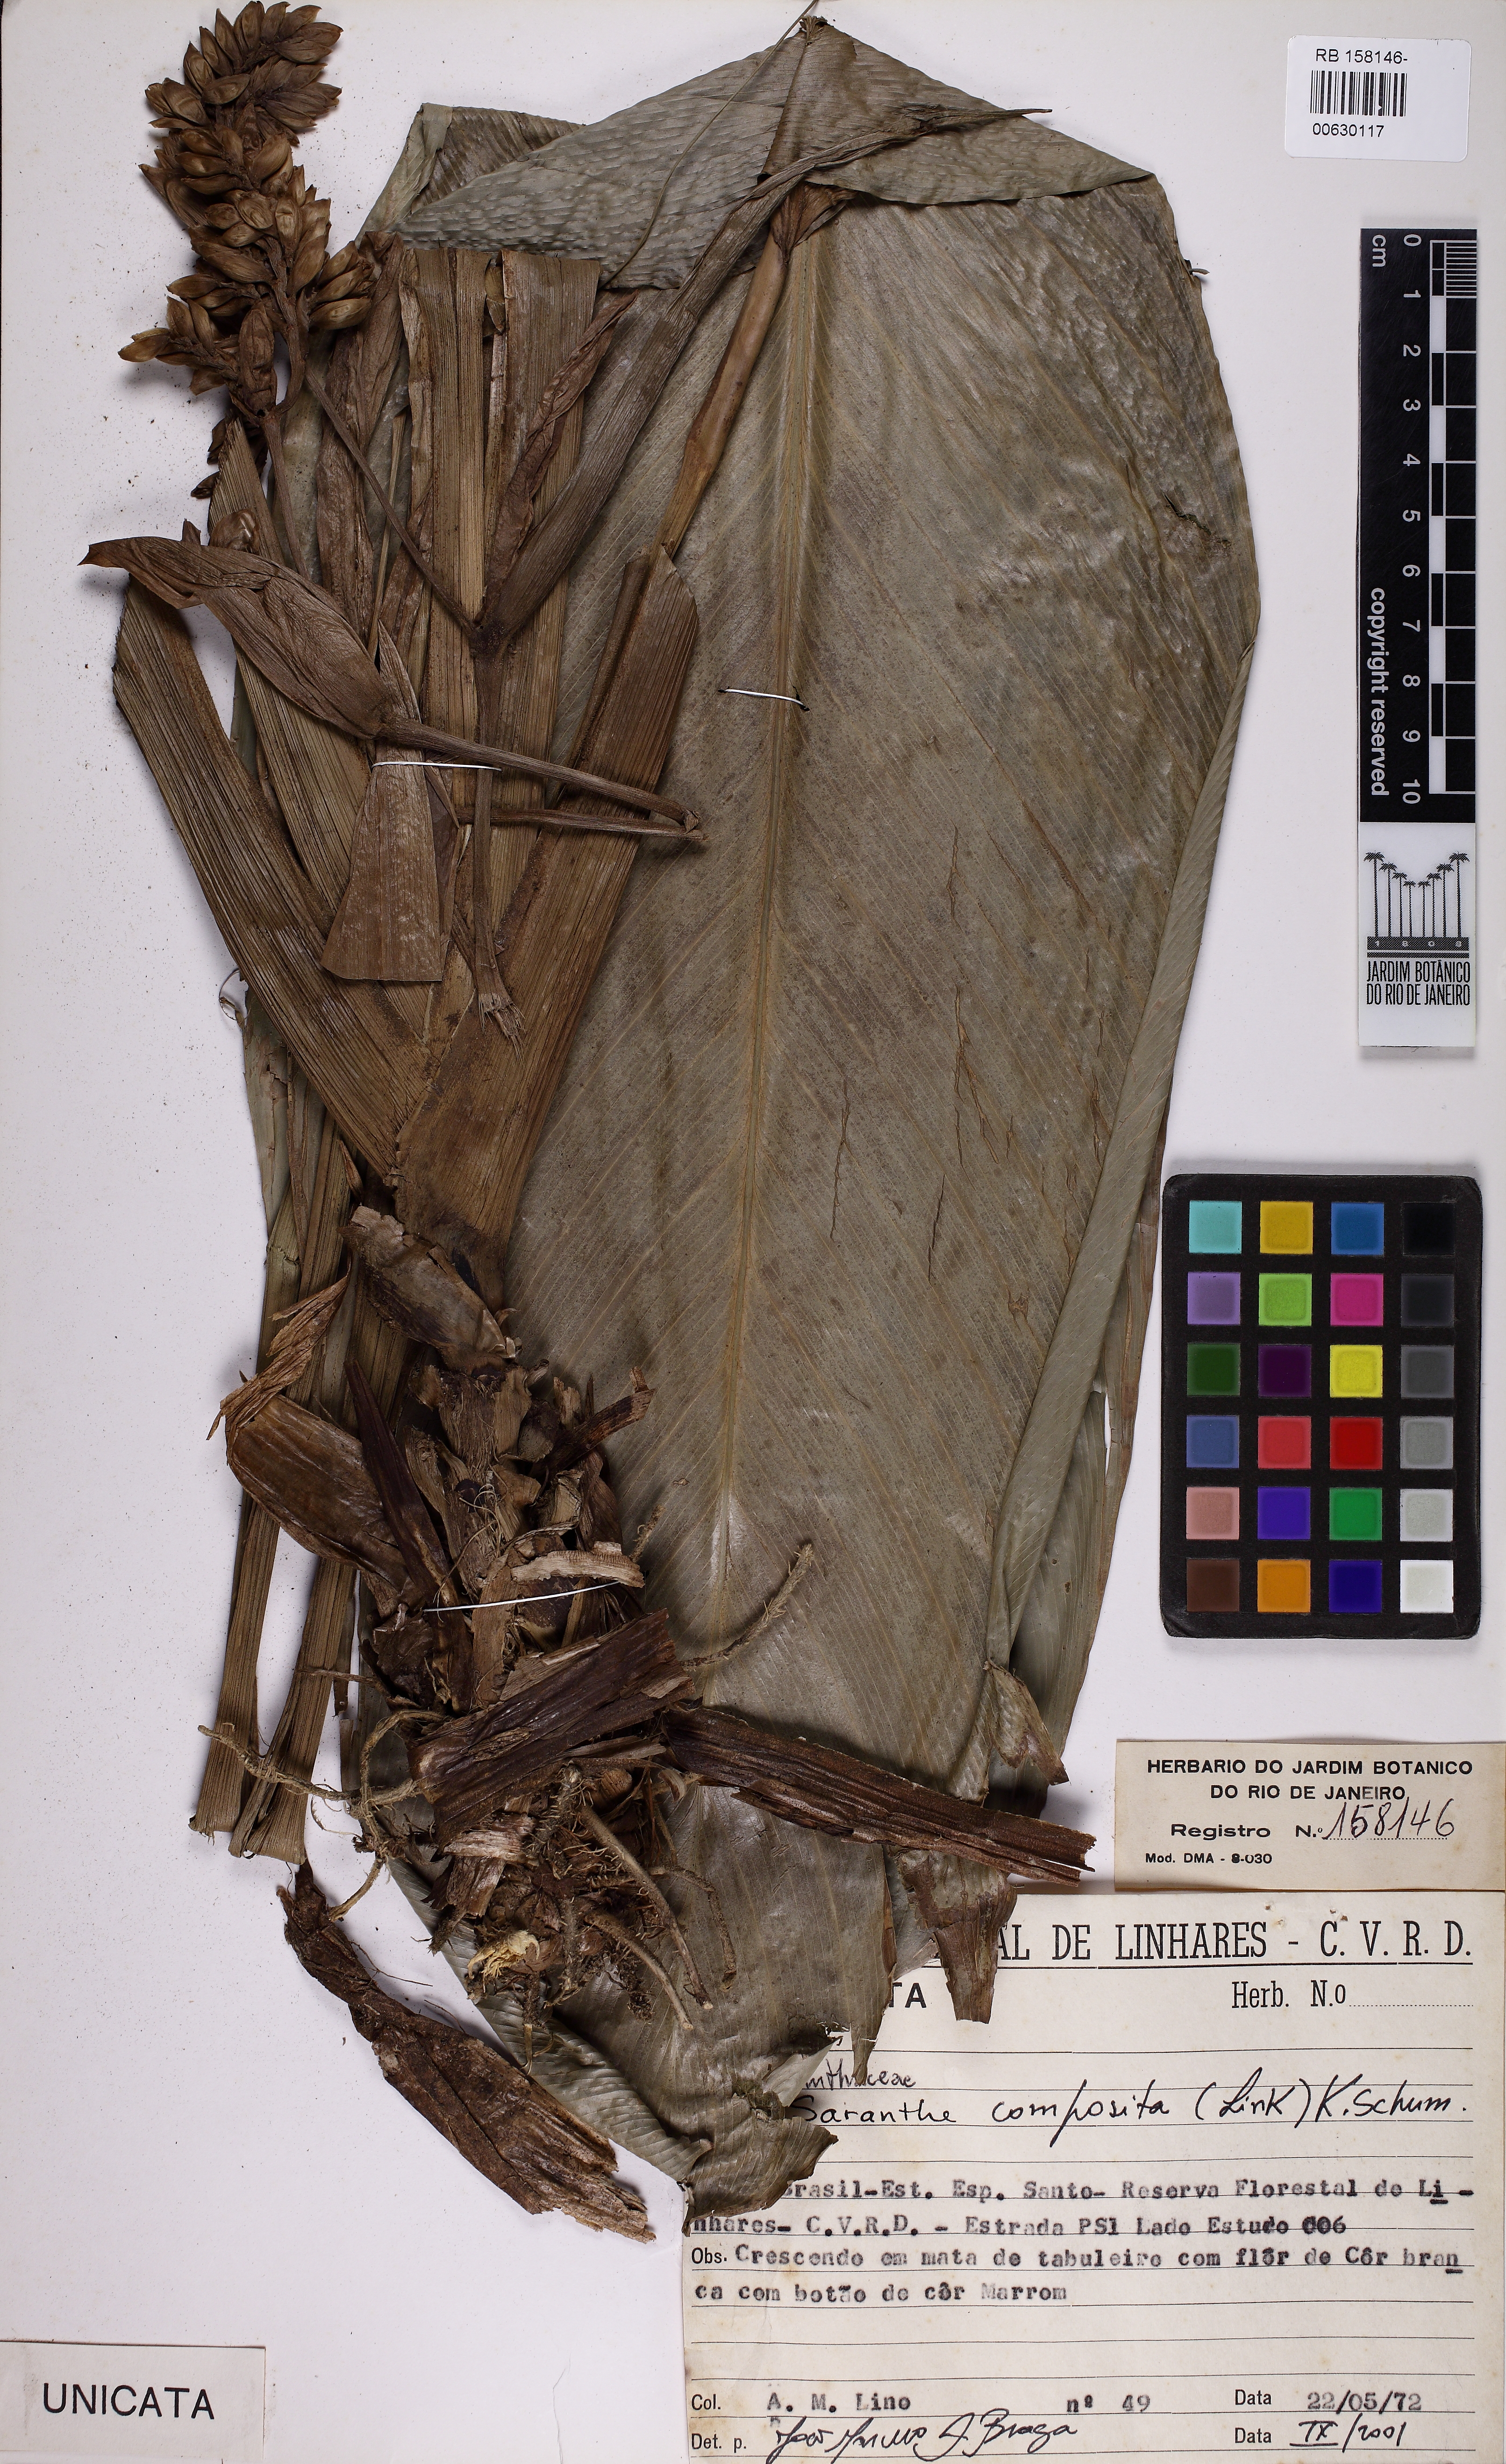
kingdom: Plantae
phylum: Tracheophyta
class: Liliopsida
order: Zingiberales
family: Marantaceae
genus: Saranthe
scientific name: Saranthe composita
